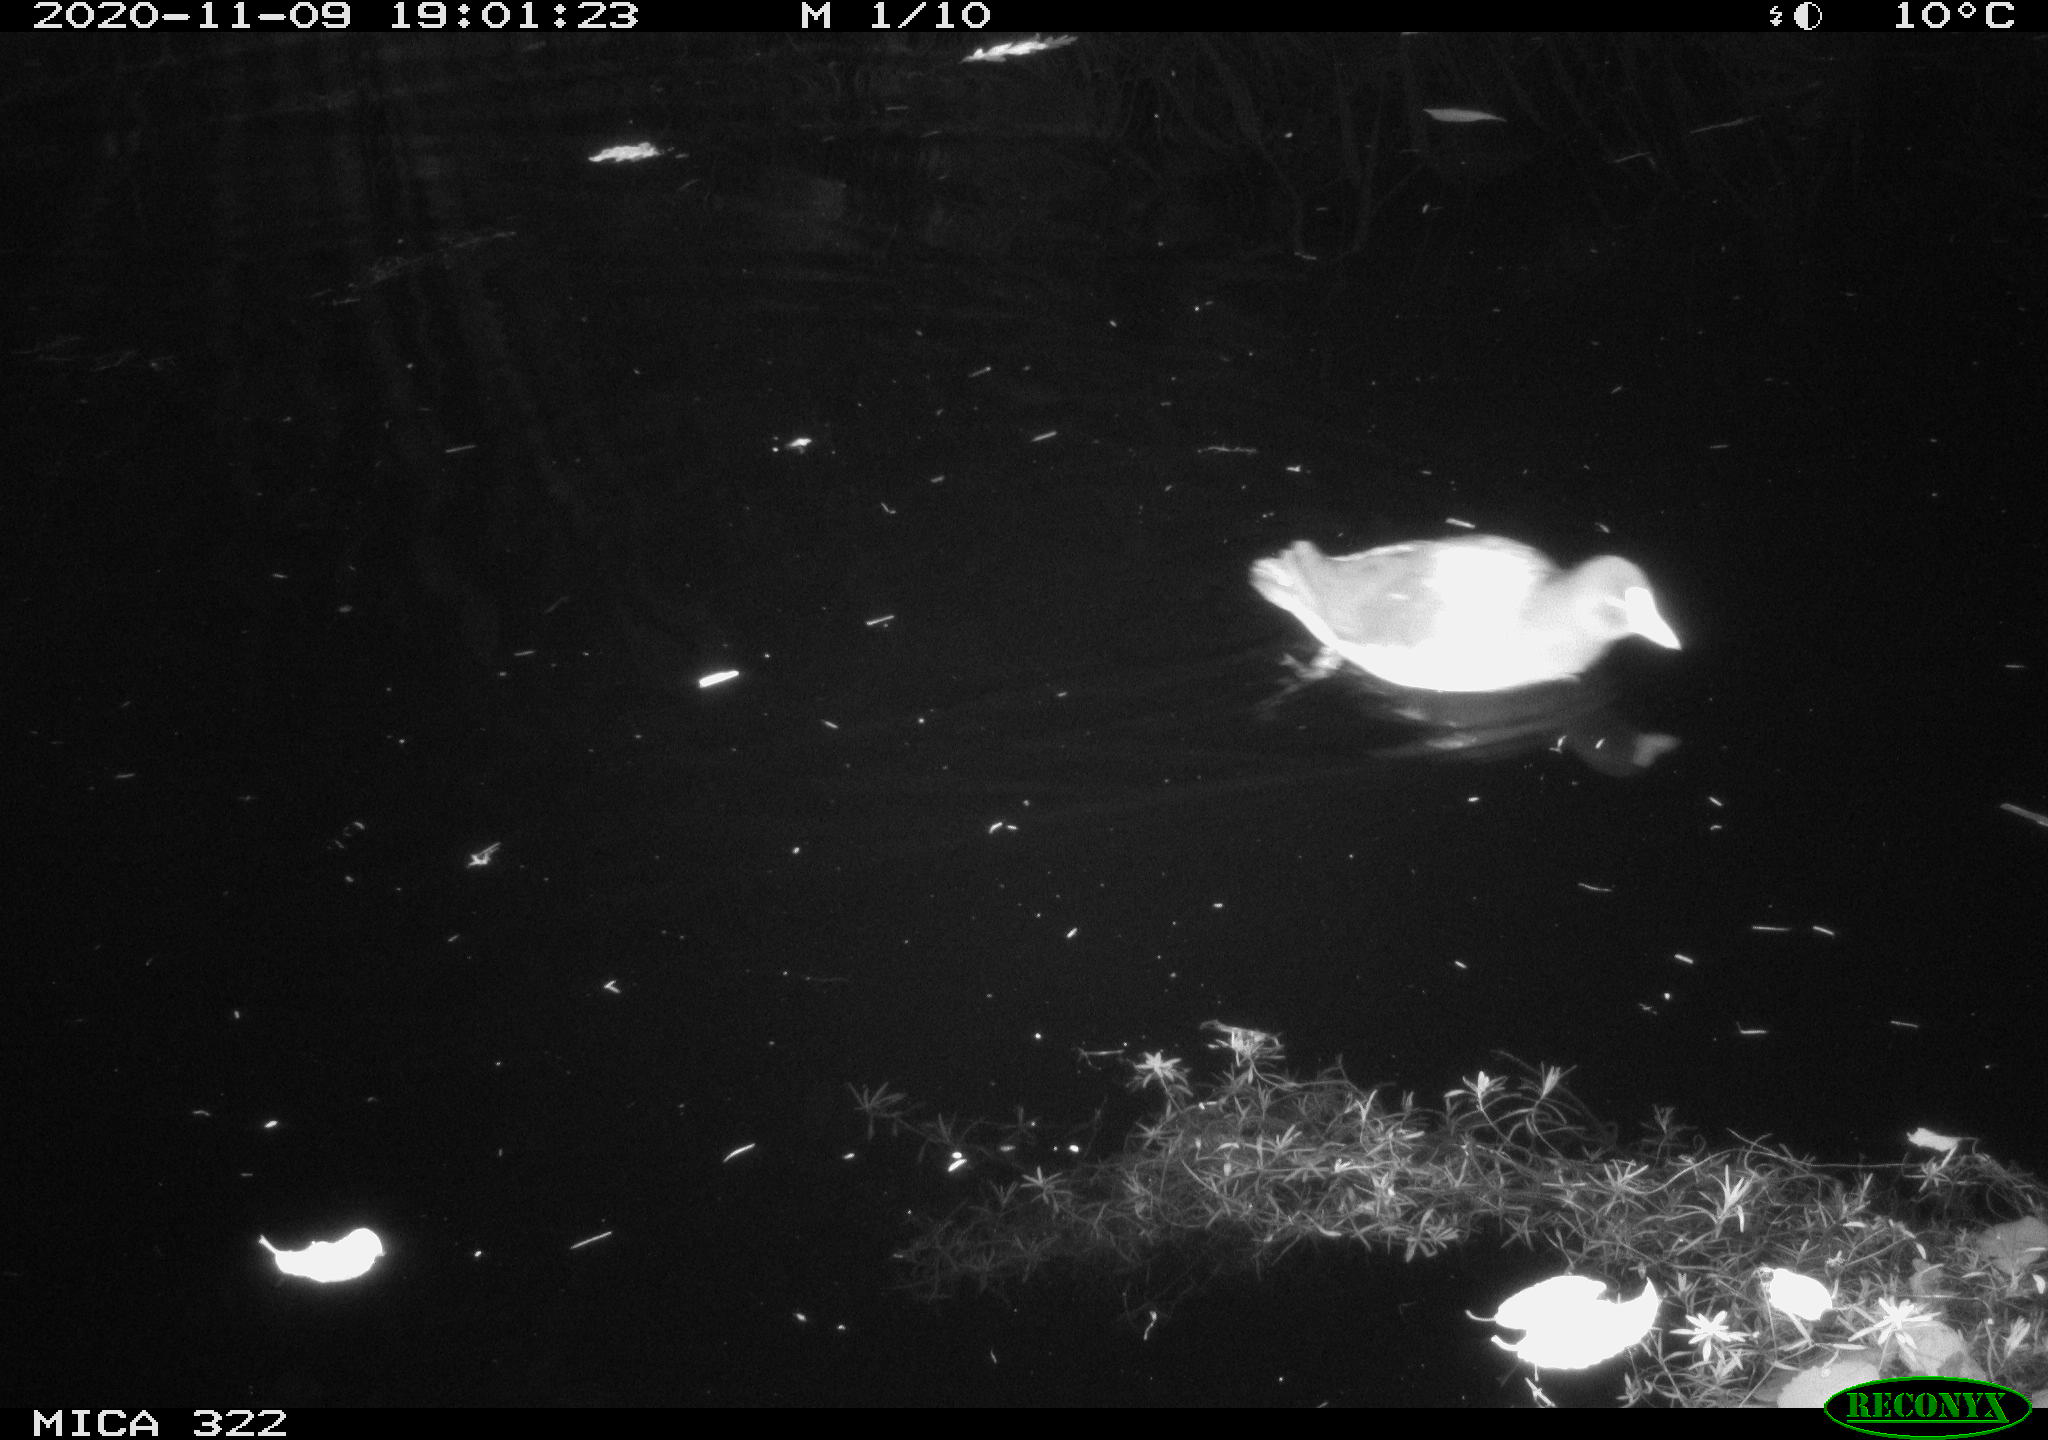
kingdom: Animalia
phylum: Chordata
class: Aves
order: Gruiformes
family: Rallidae
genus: Gallinula
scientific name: Gallinula chloropus
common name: Common moorhen
